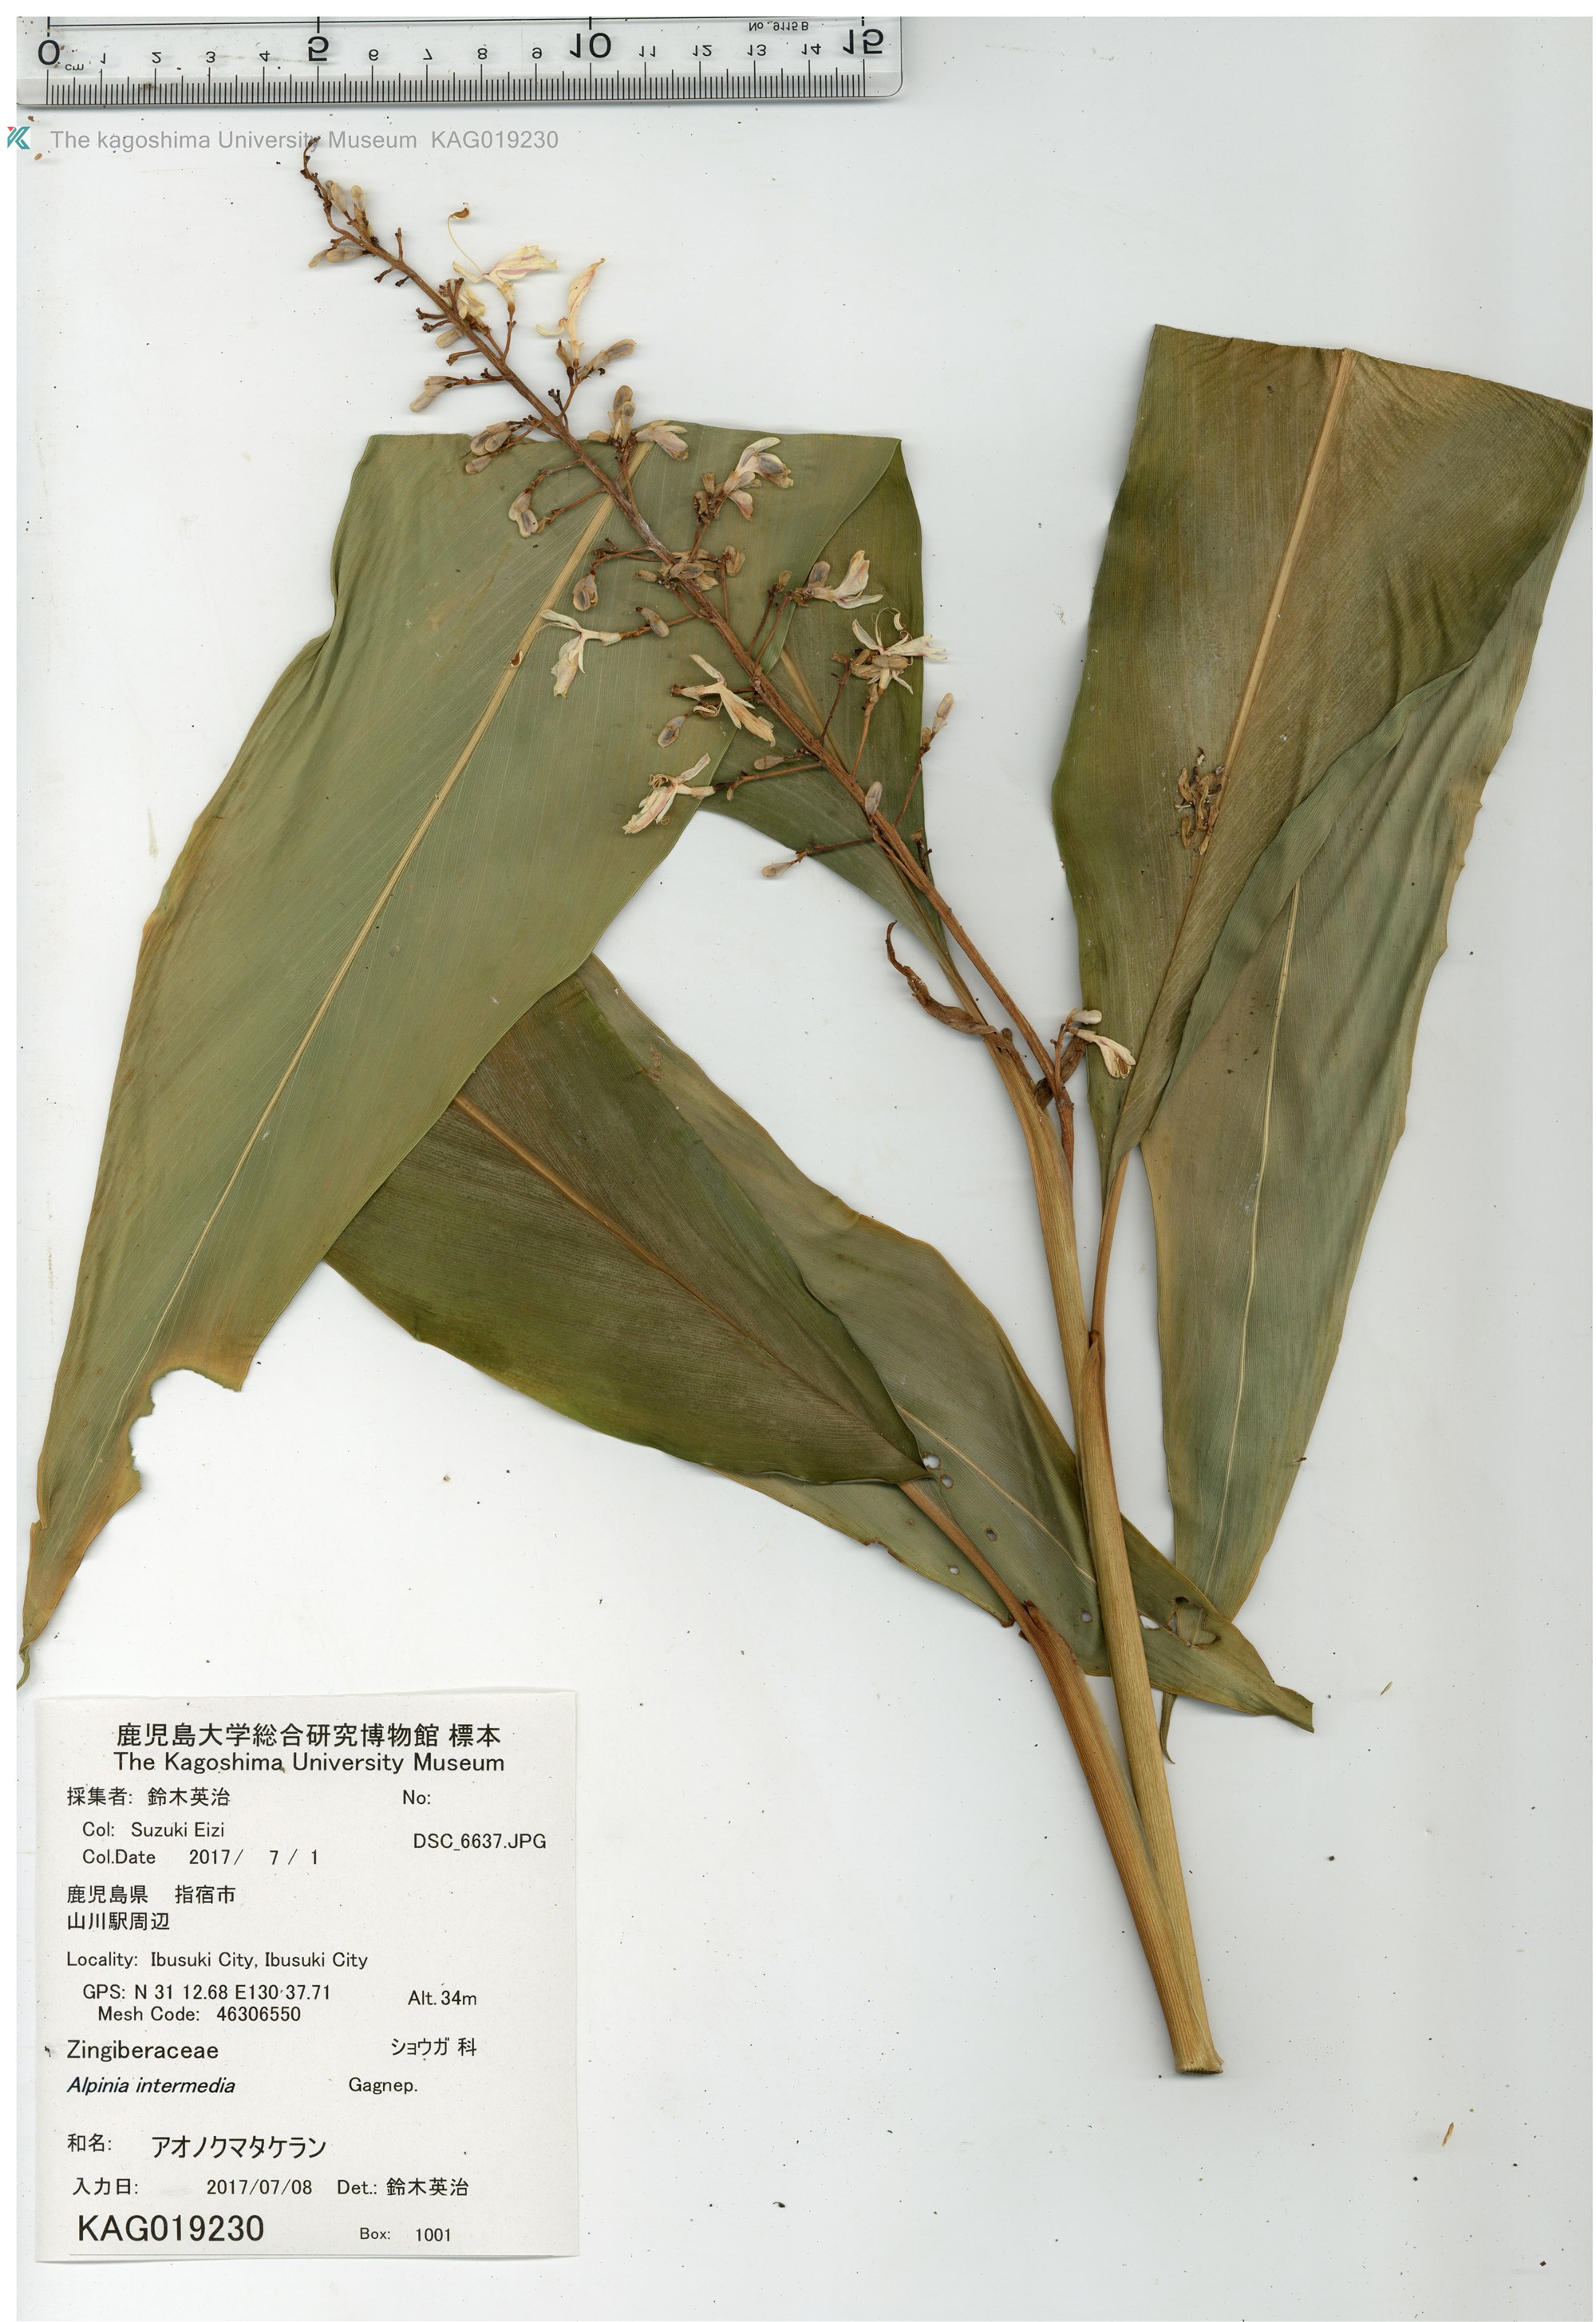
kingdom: Plantae
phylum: Tracheophyta
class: Liliopsida
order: Zingiberales
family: Zingiberaceae
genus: Alpinia
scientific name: Alpinia intermedia
